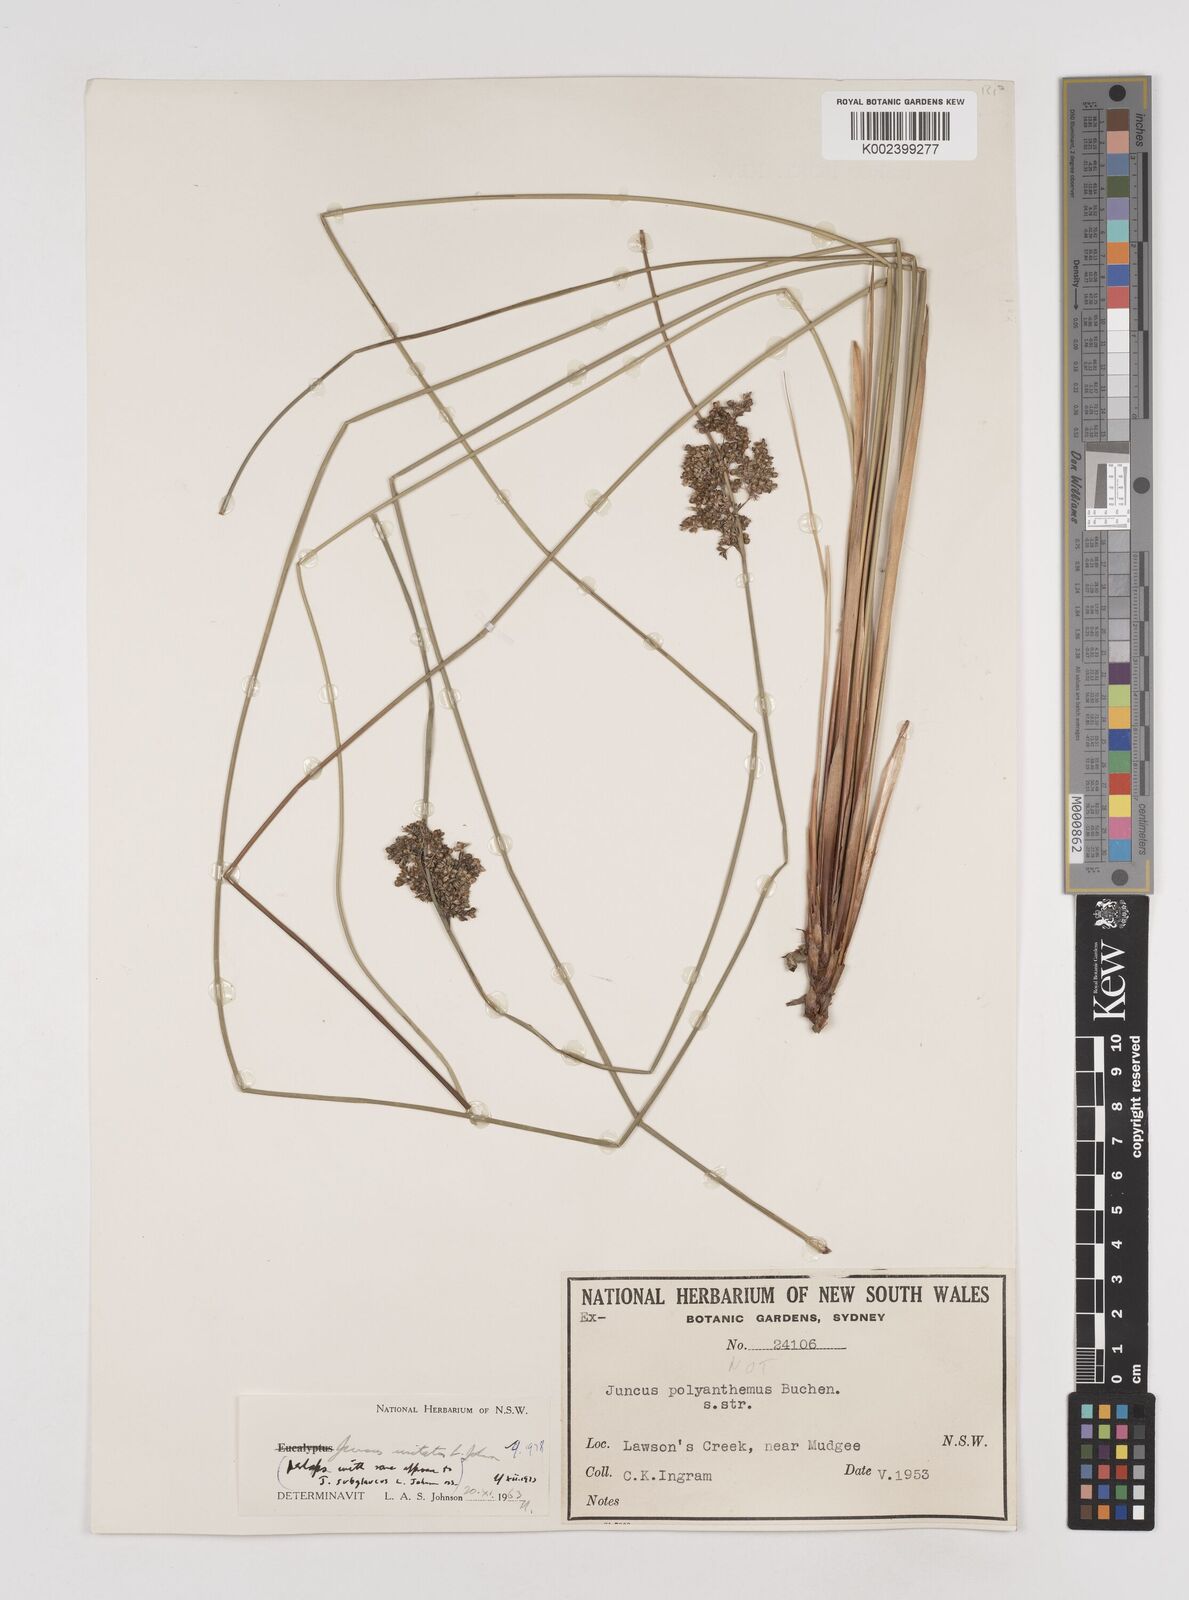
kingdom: Plantae
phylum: Tracheophyta
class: Liliopsida
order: Poales
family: Juncaceae
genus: Juncus
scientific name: Juncus usitatus
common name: Rush
